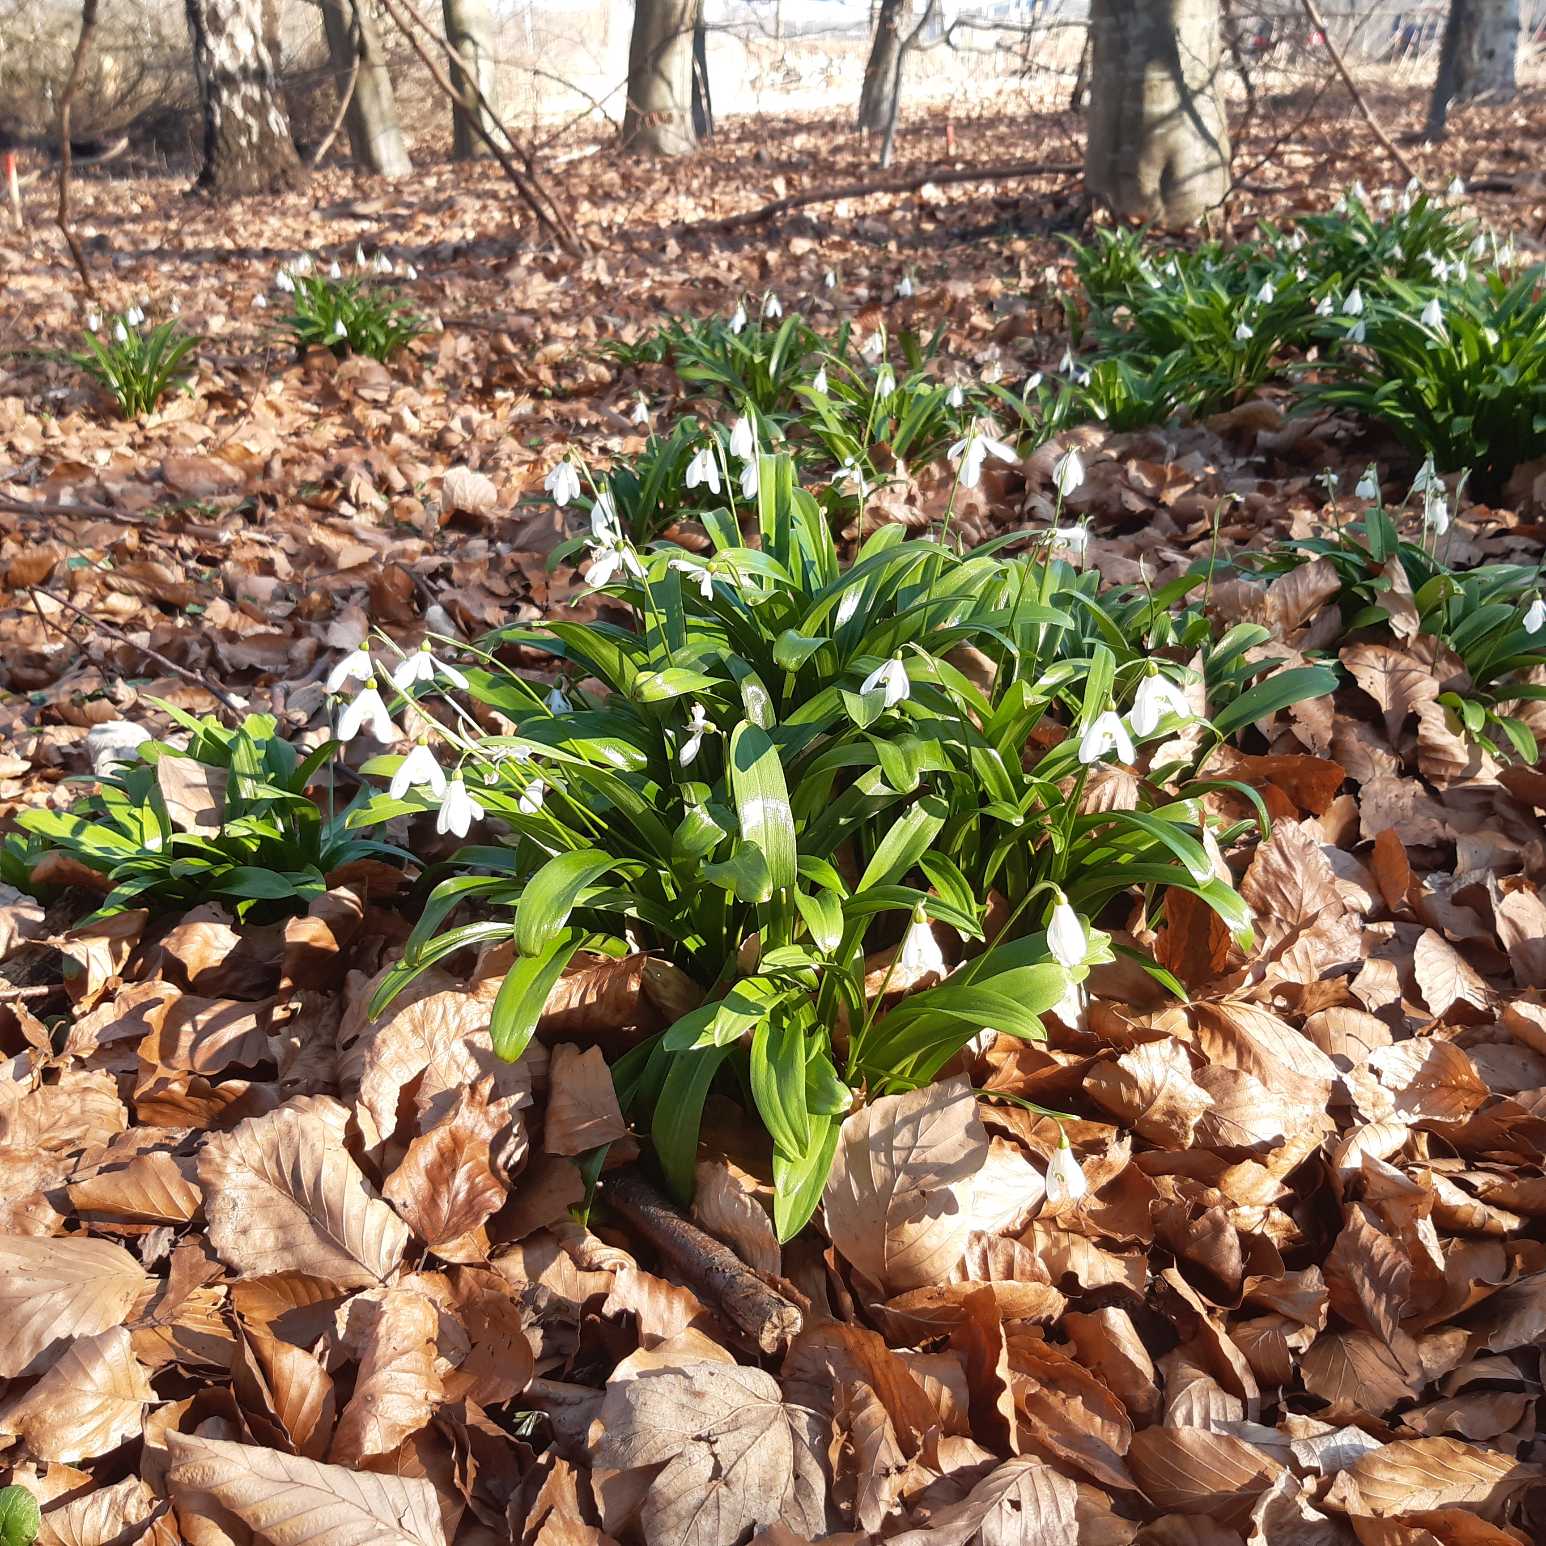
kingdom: Plantae
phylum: Tracheophyta
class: Liliopsida
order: Asparagales
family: Amaryllidaceae
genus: Galanthus
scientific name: Galanthus woronowii
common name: Kaukasisk vintergæk
